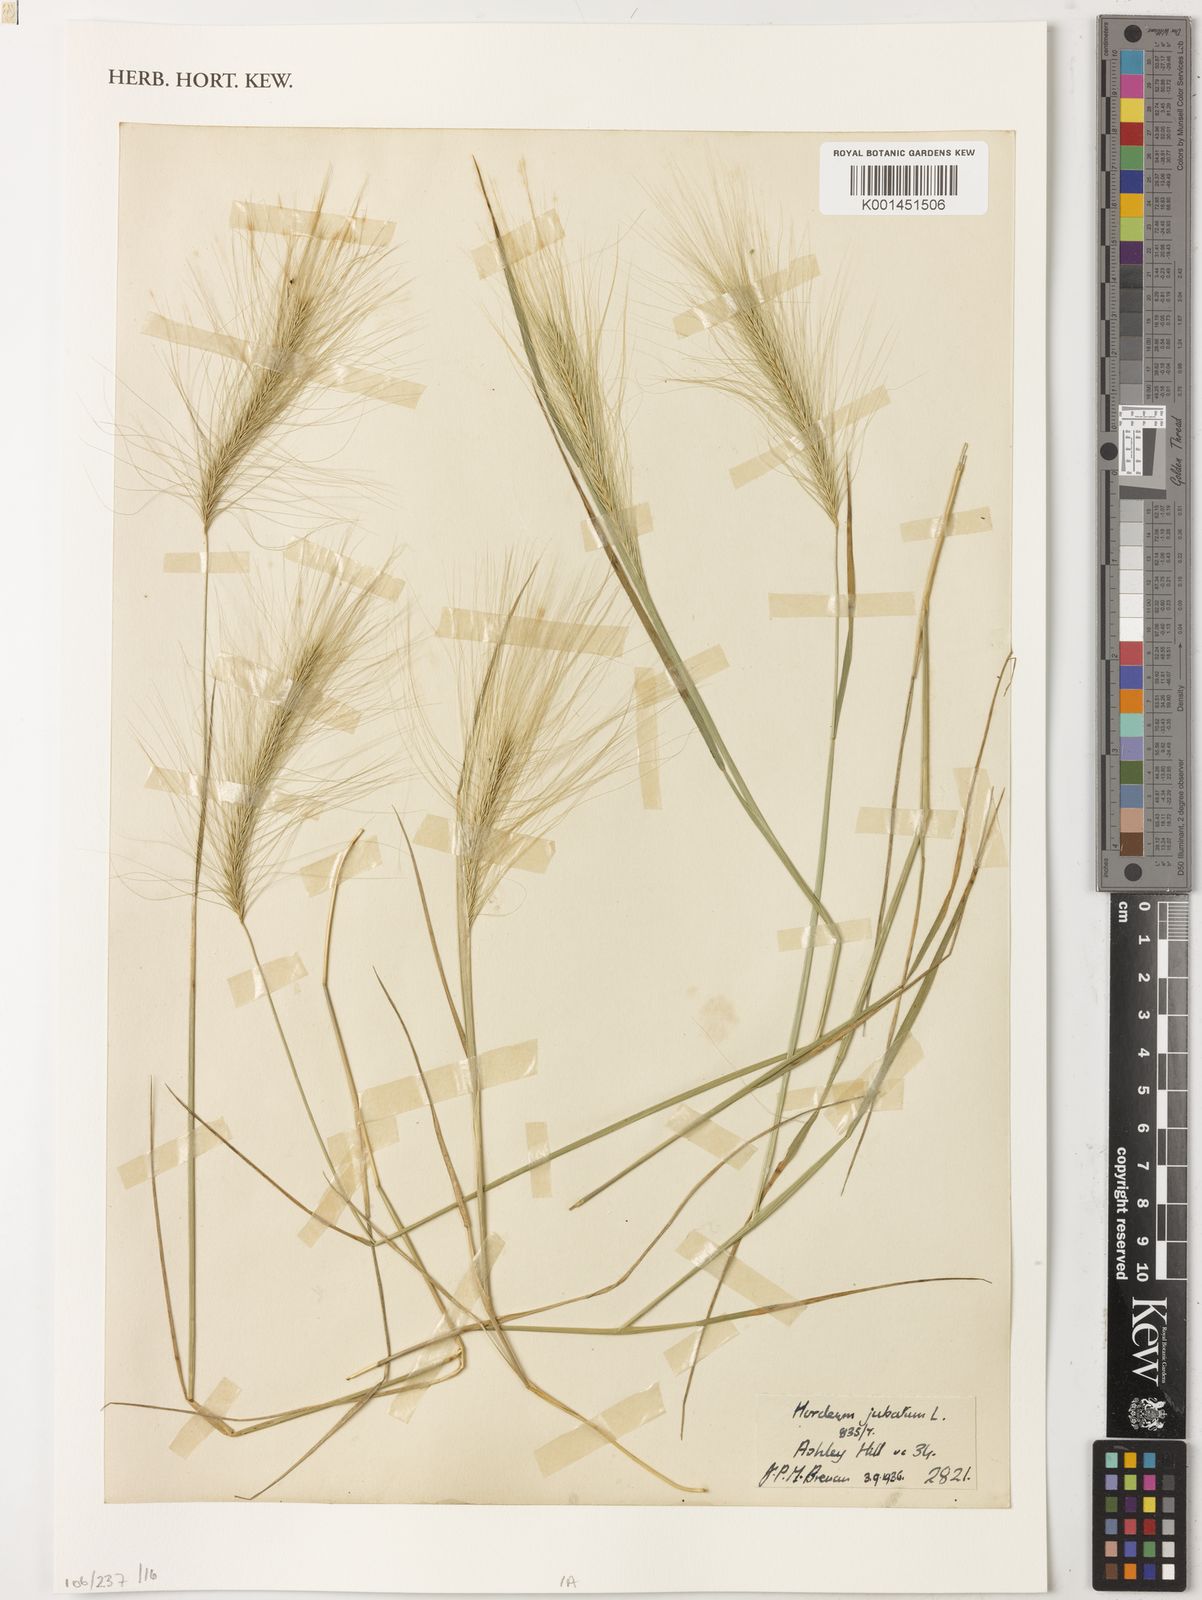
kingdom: Plantae
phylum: Tracheophyta
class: Liliopsida
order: Poales
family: Poaceae
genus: Hordeum
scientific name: Hordeum jubatum
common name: Foxtail barley
